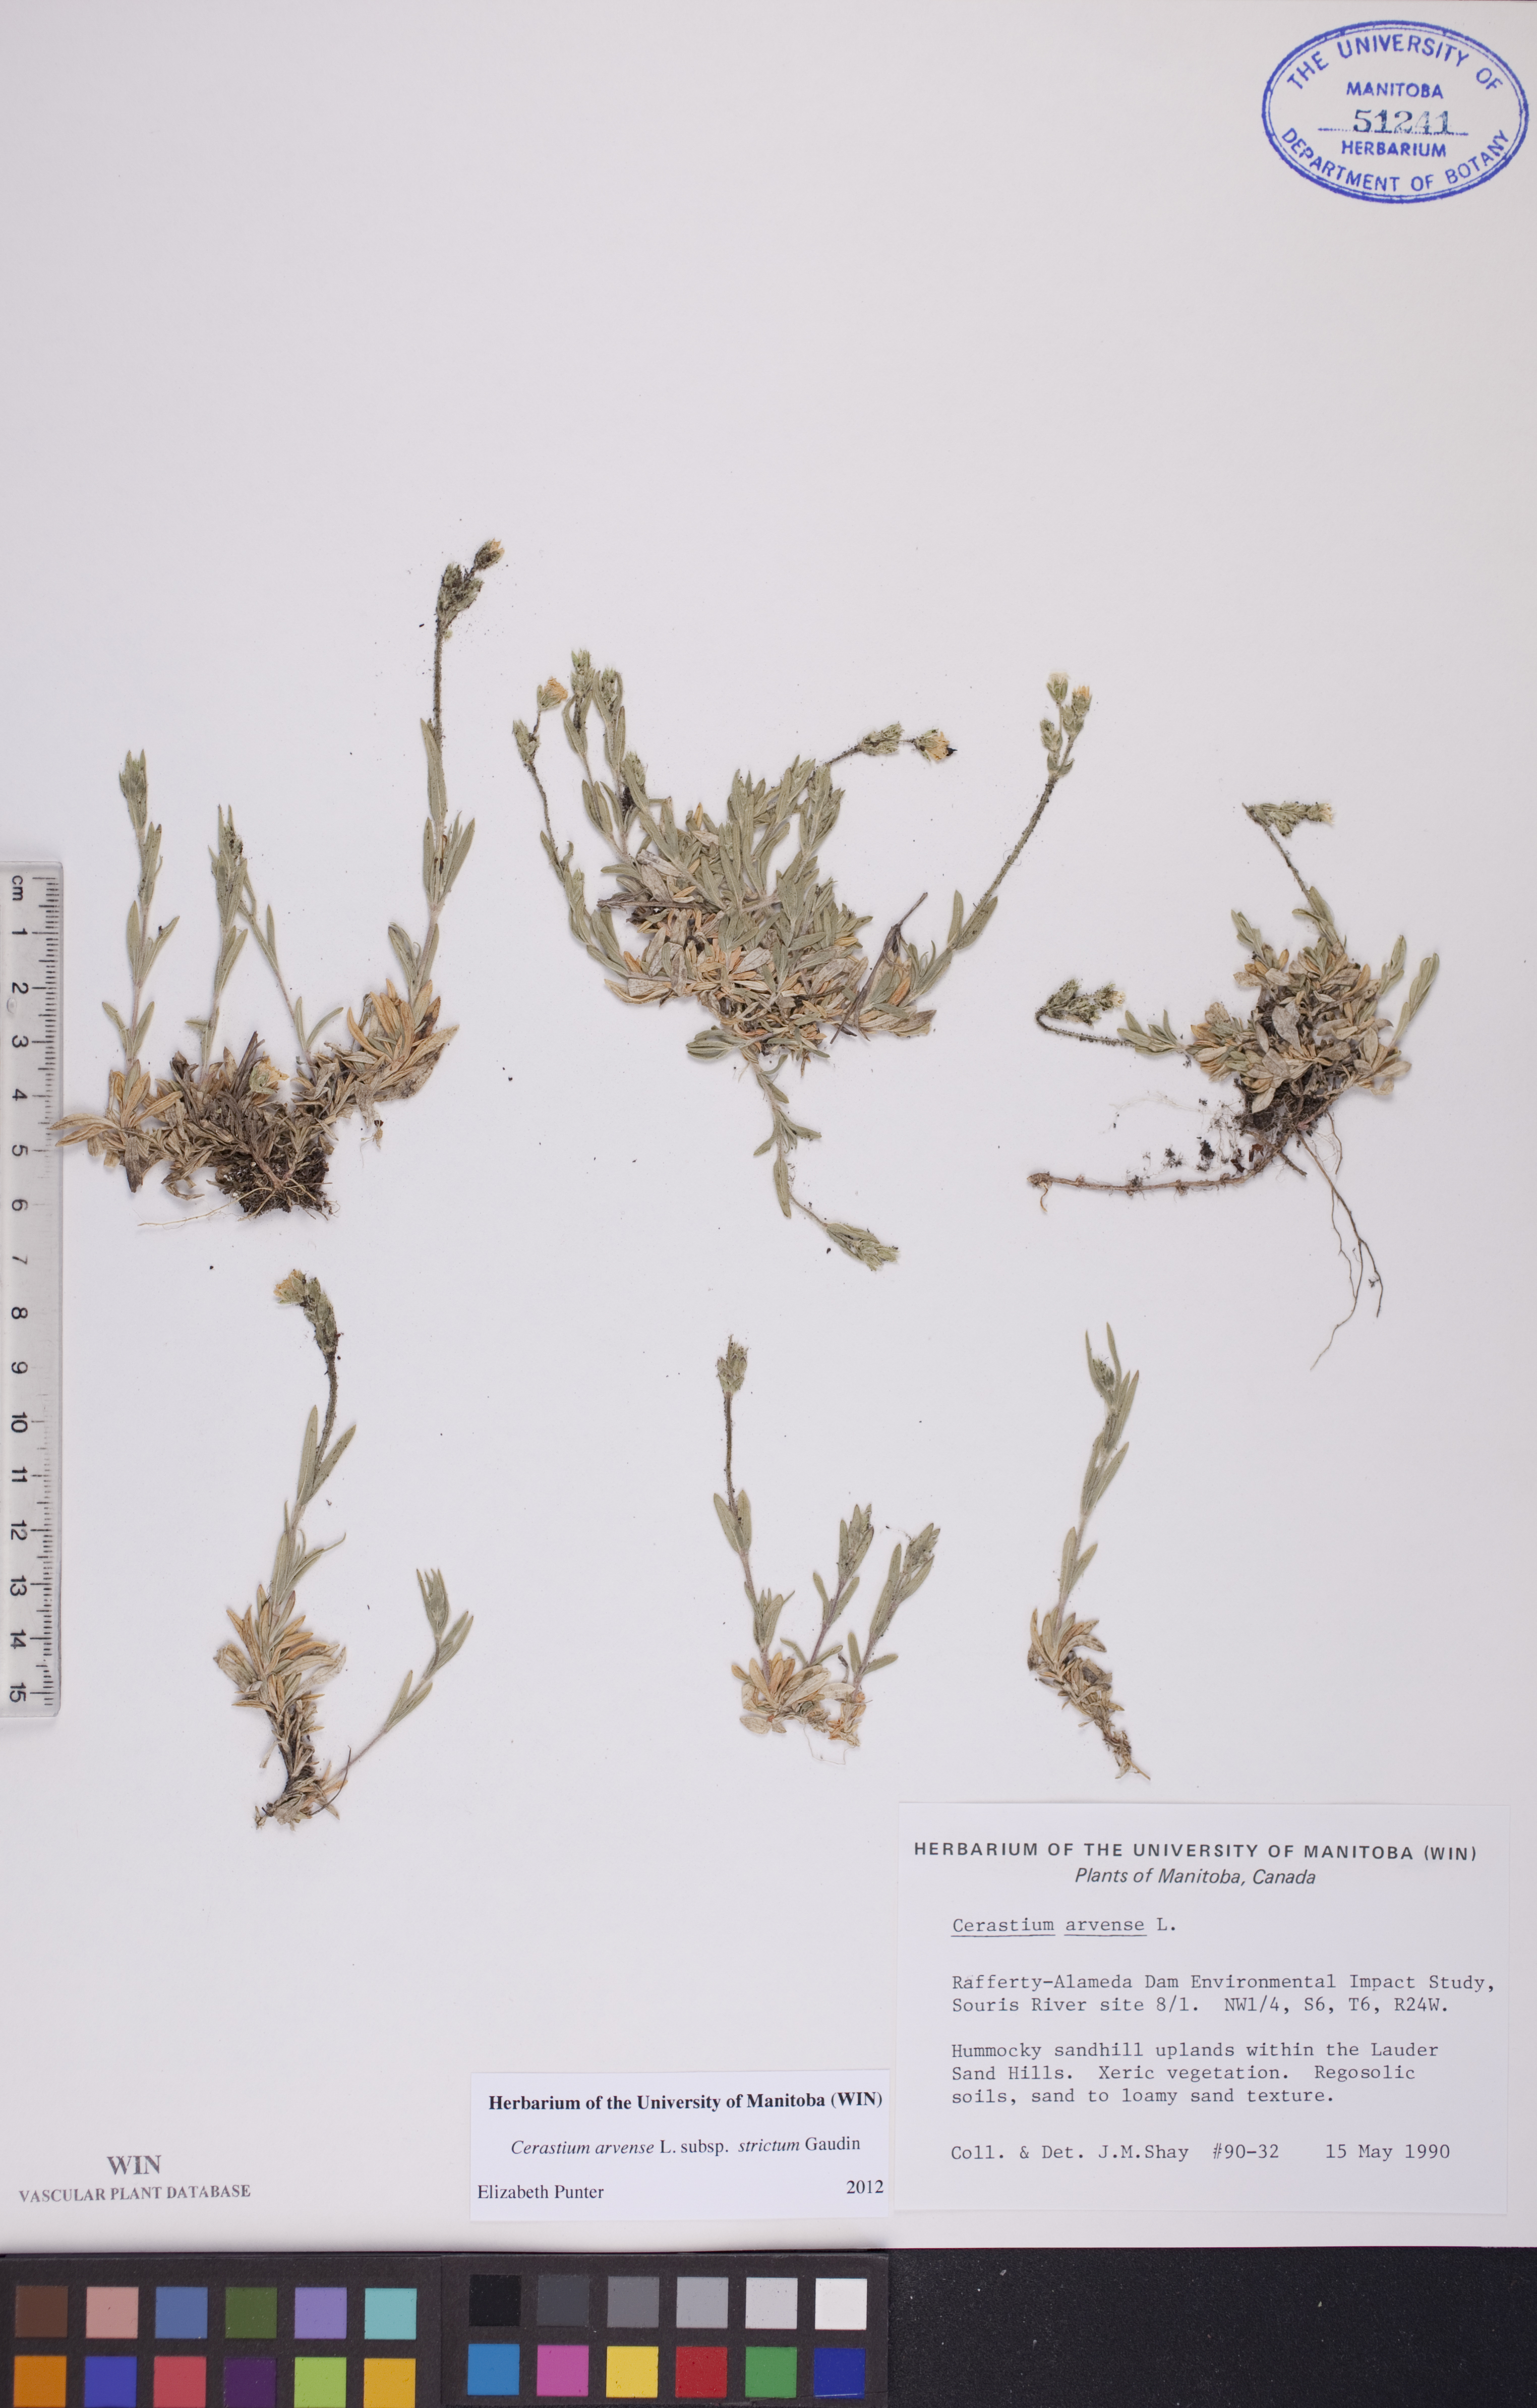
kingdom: Plantae
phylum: Tracheophyta
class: Magnoliopsida
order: Caryophyllales
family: Caryophyllaceae
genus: Cerastium
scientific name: Cerastium elongatum
